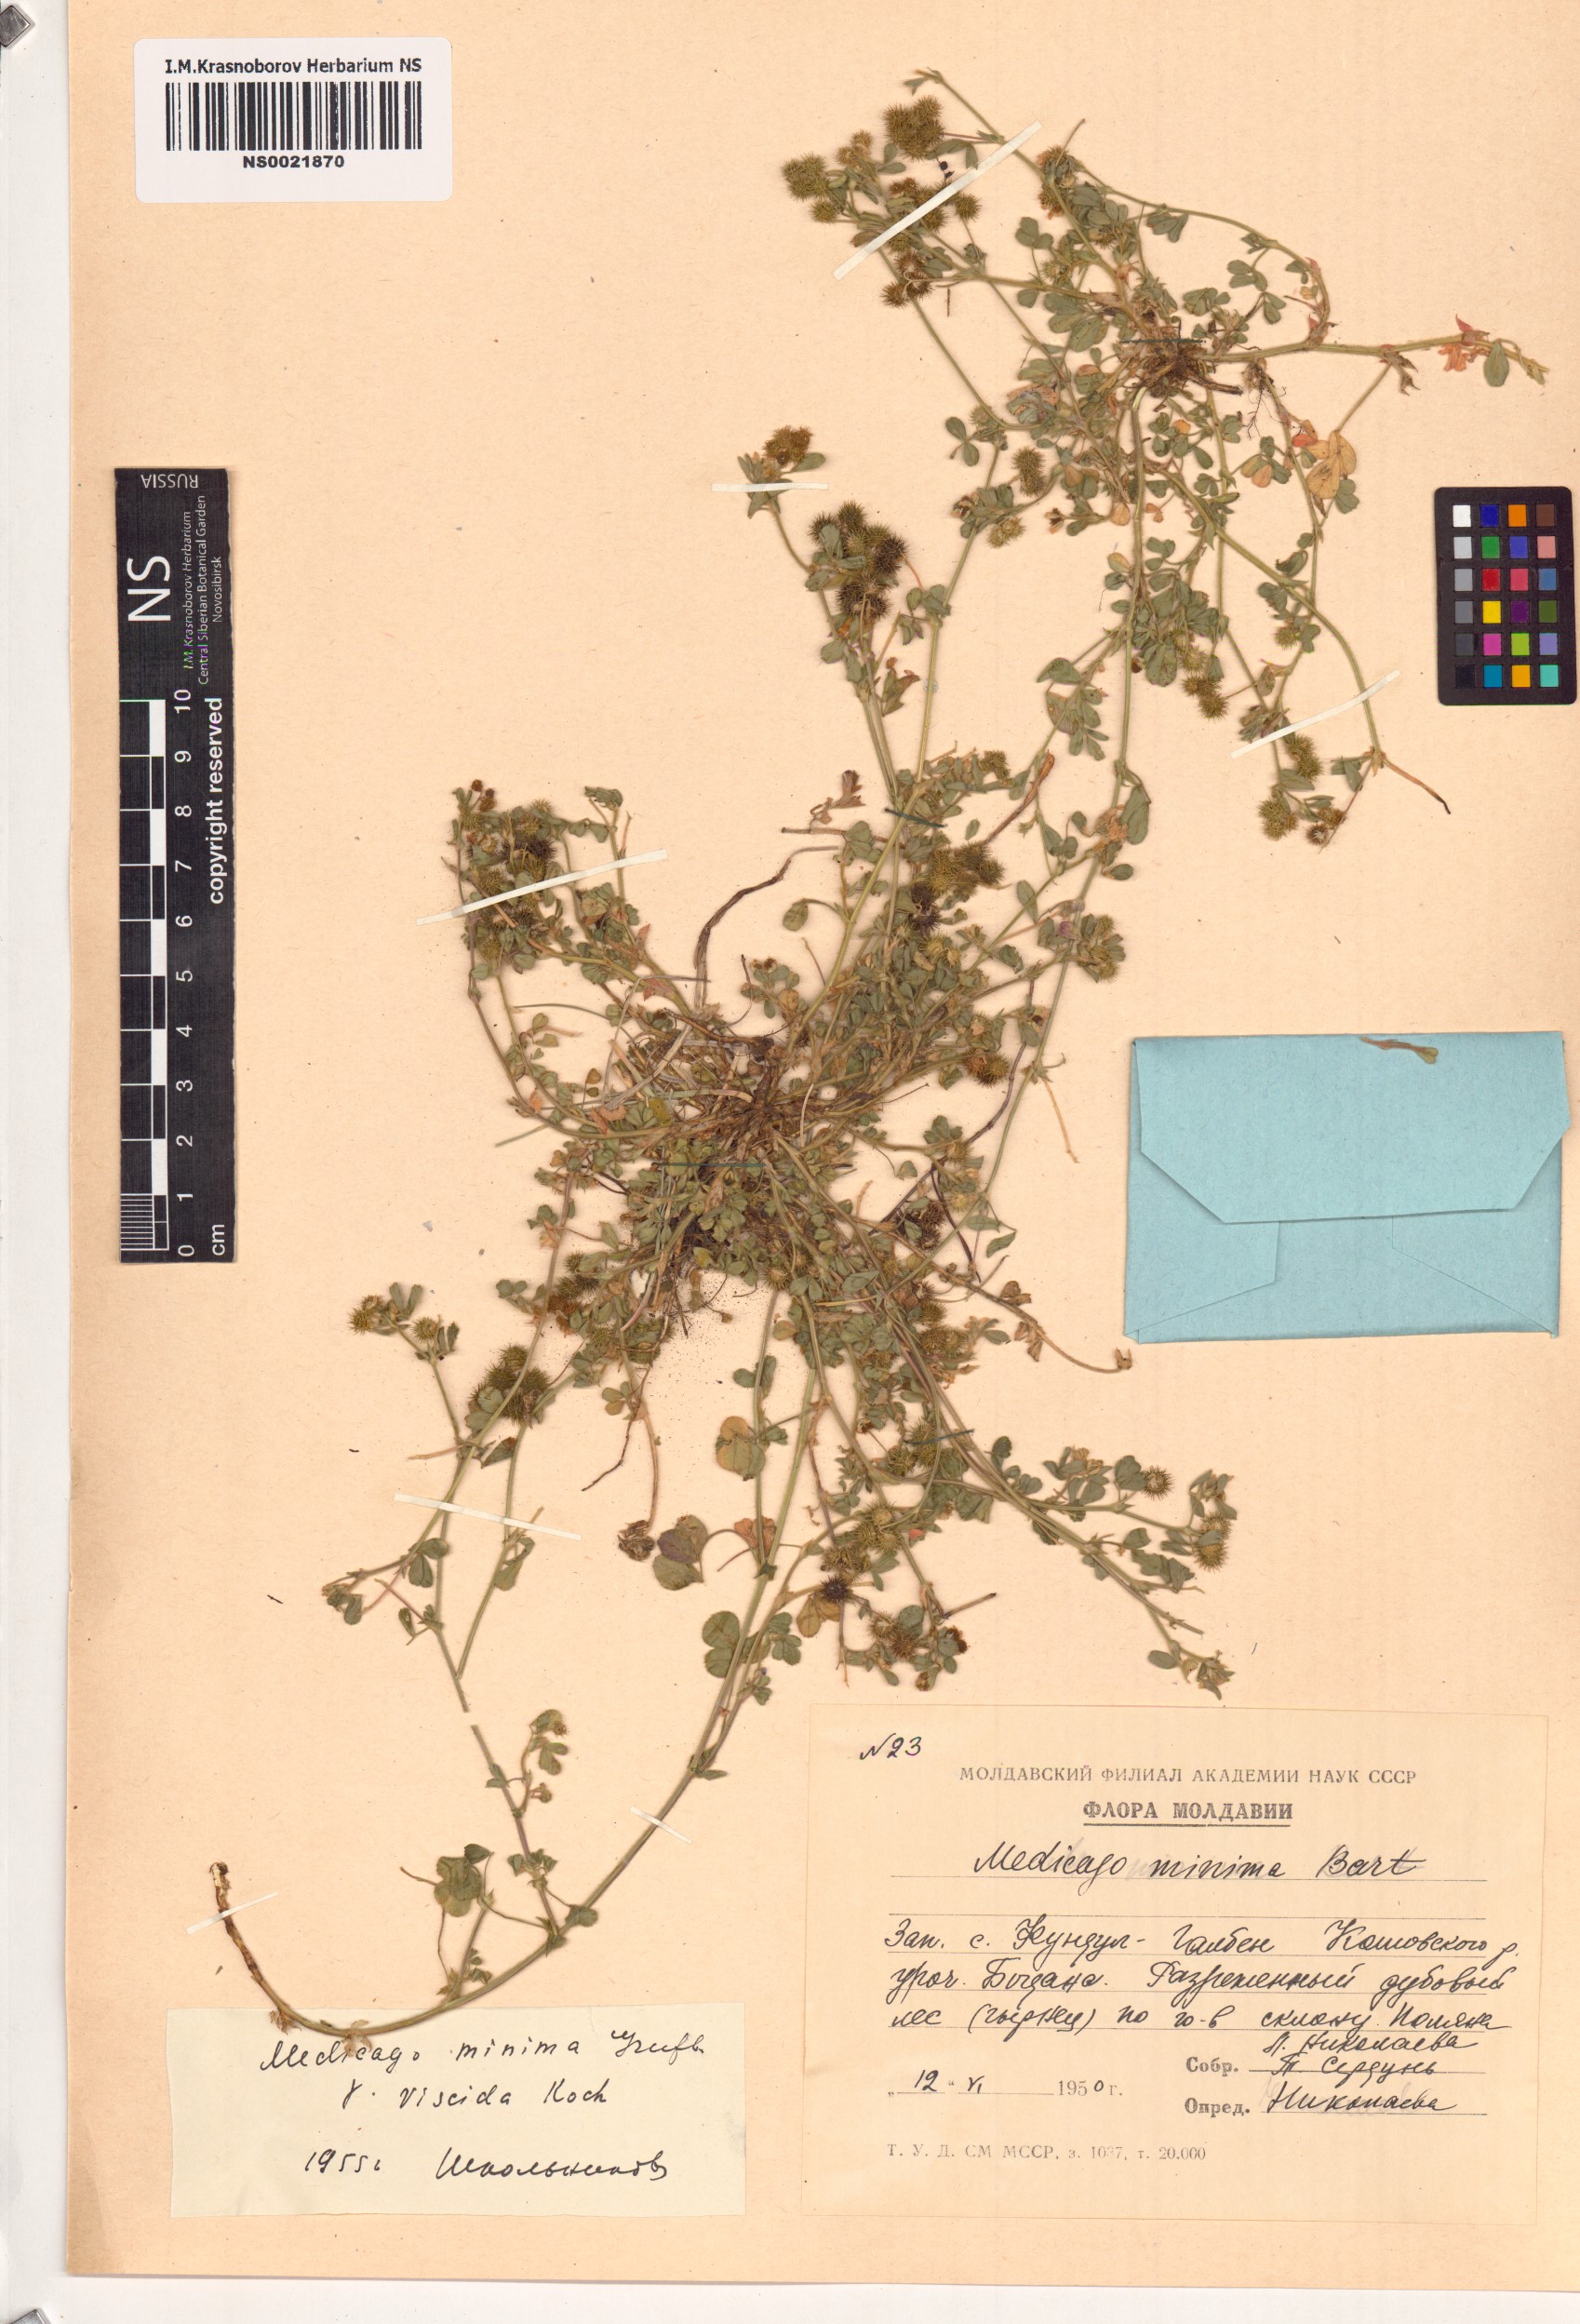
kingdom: Plantae
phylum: Tracheophyta
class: Magnoliopsida
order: Fabales
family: Fabaceae
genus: Medicago
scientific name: Medicago minima
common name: Little bur-clover
